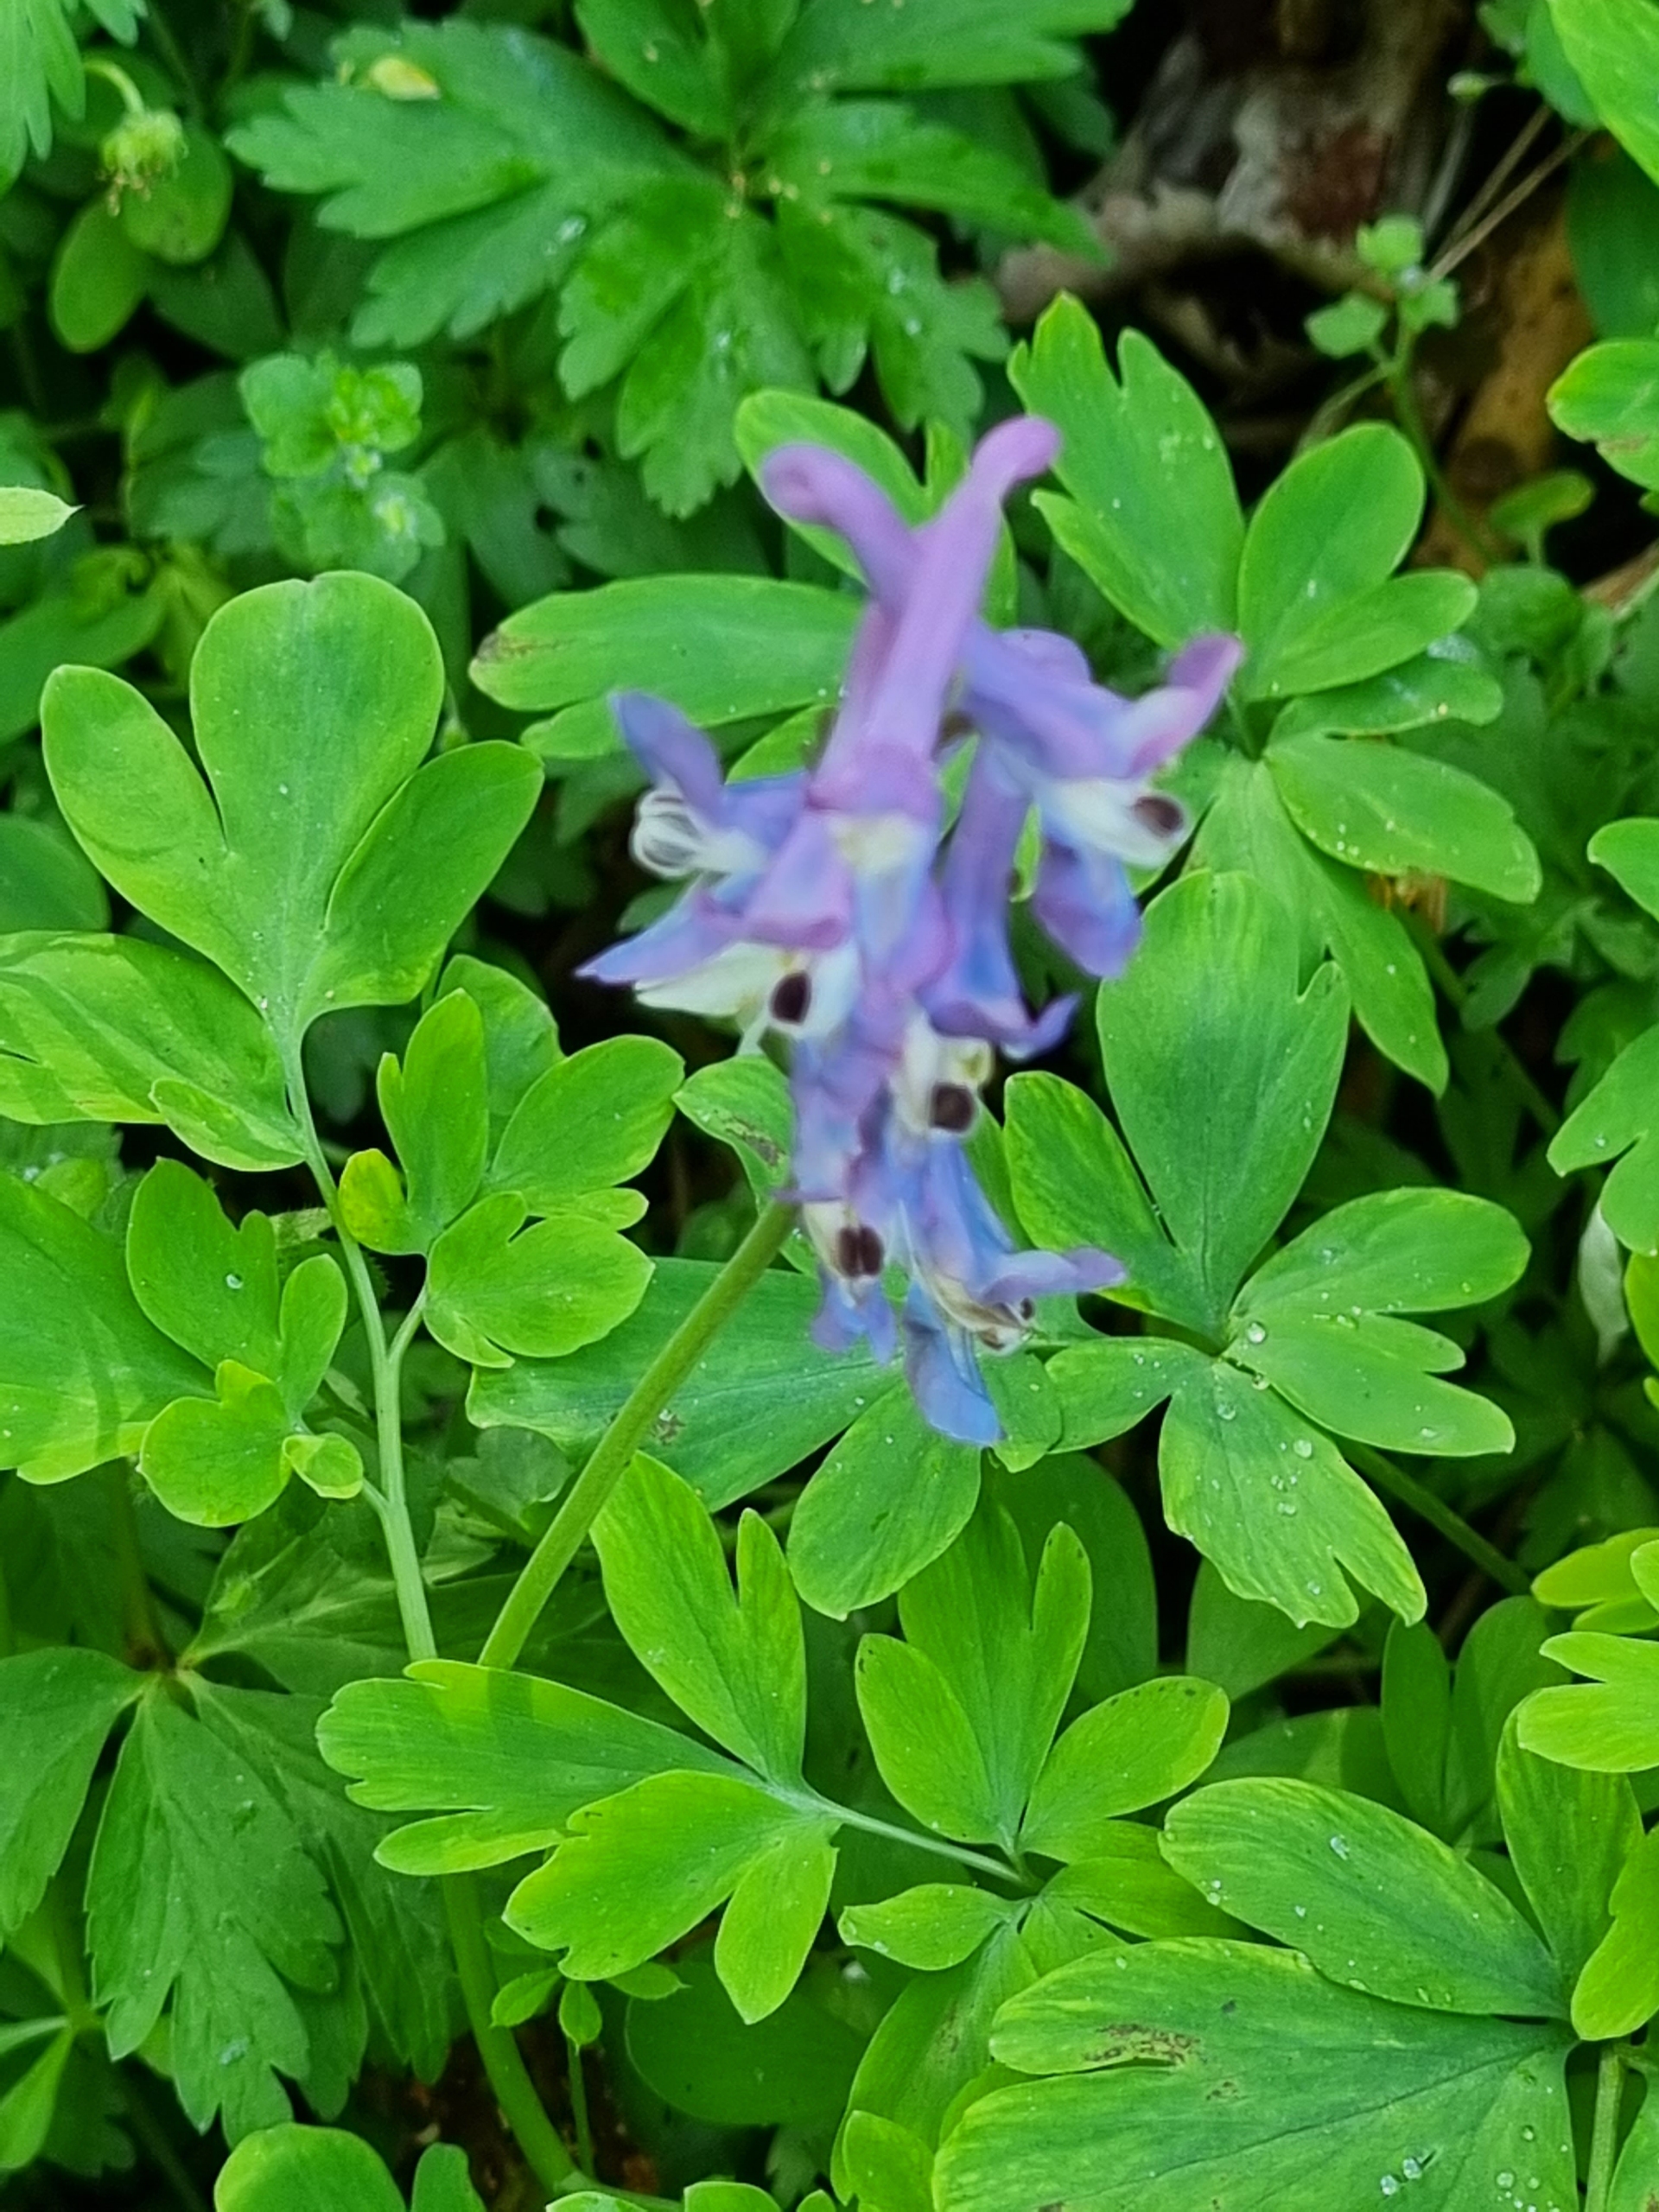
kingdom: Plantae
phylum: Tracheophyta
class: Magnoliopsida
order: Ranunculales
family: Papaveraceae
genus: Corydalis
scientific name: Corydalis cava
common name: Hulrodet lærkespore
